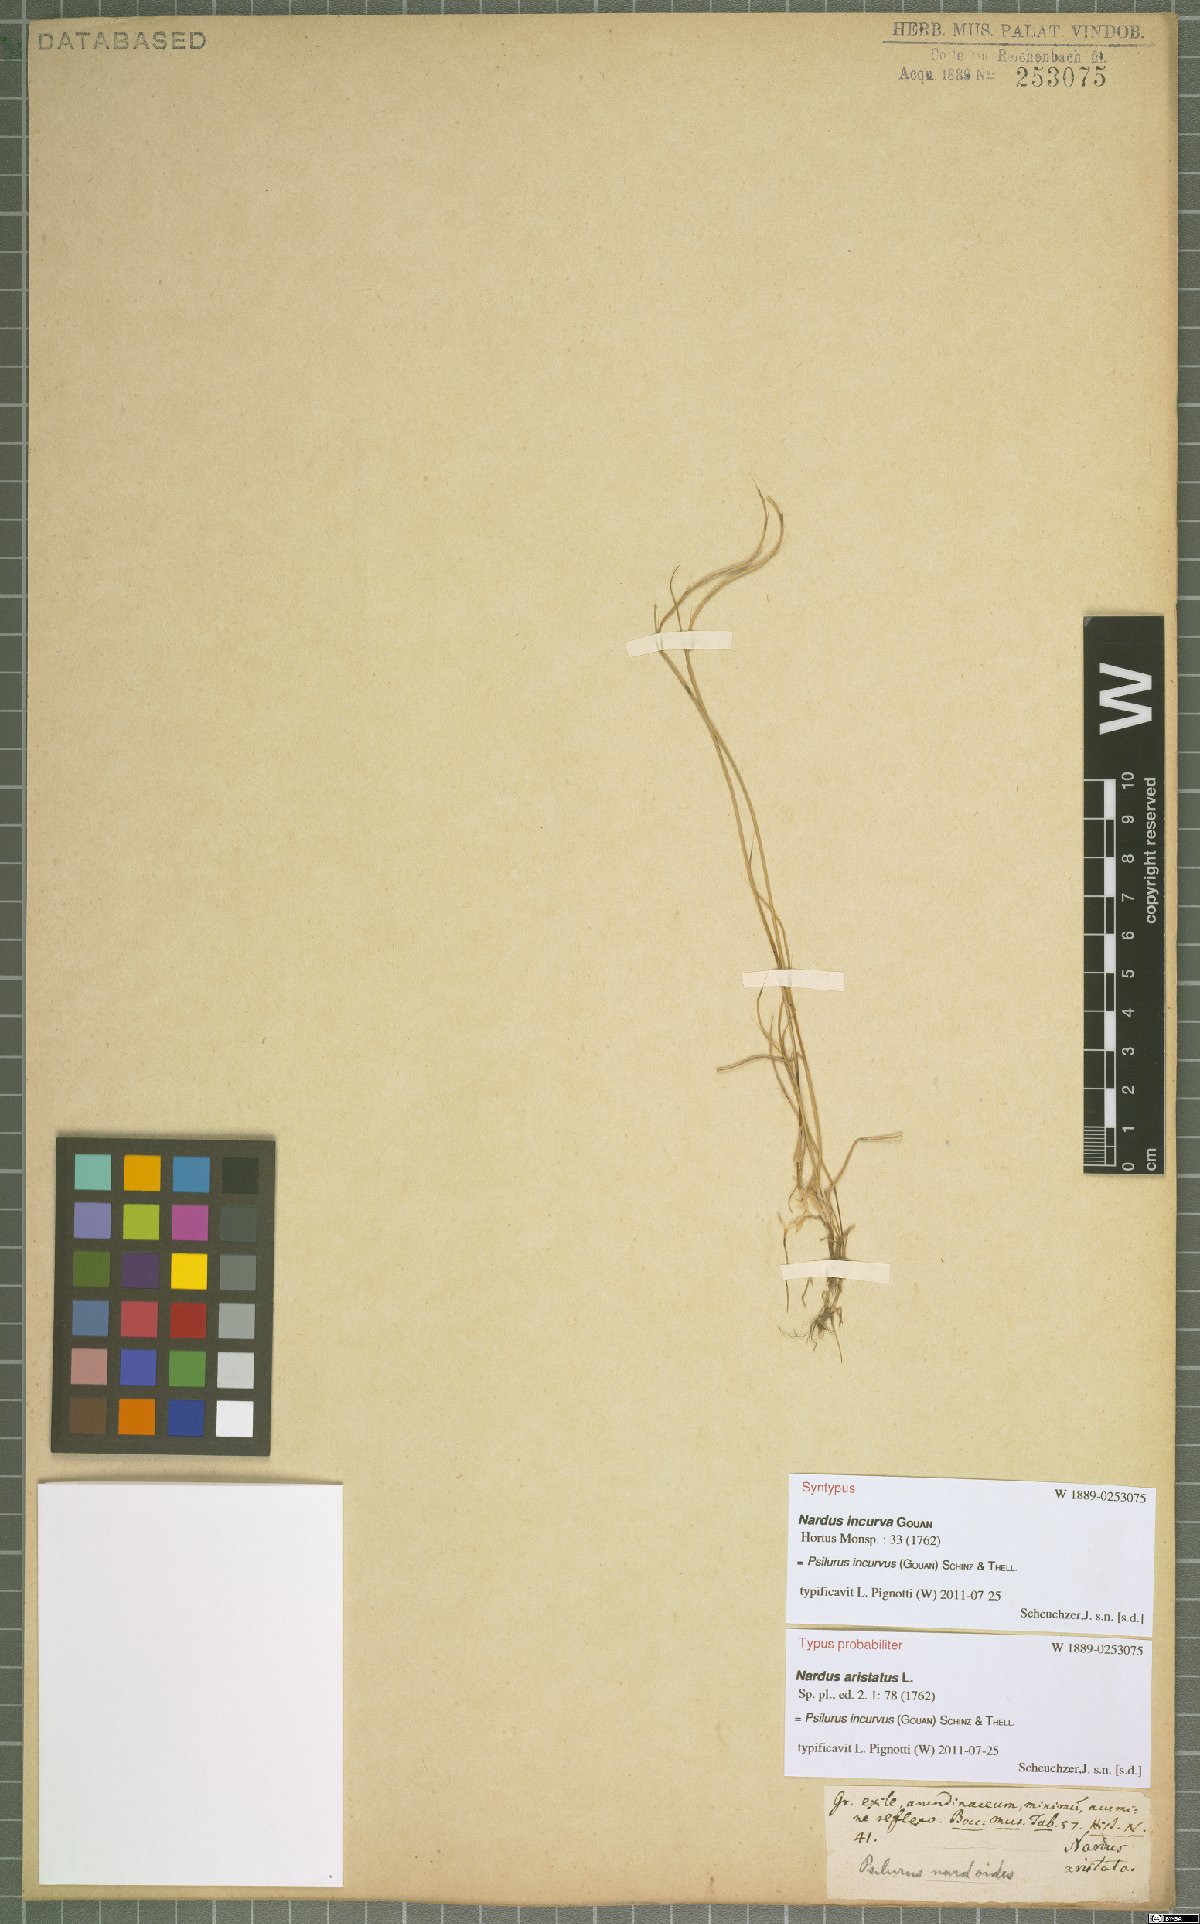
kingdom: Plantae
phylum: Tracheophyta
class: Liliopsida
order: Poales
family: Poaceae
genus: Festuca
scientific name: Festuca incurva
